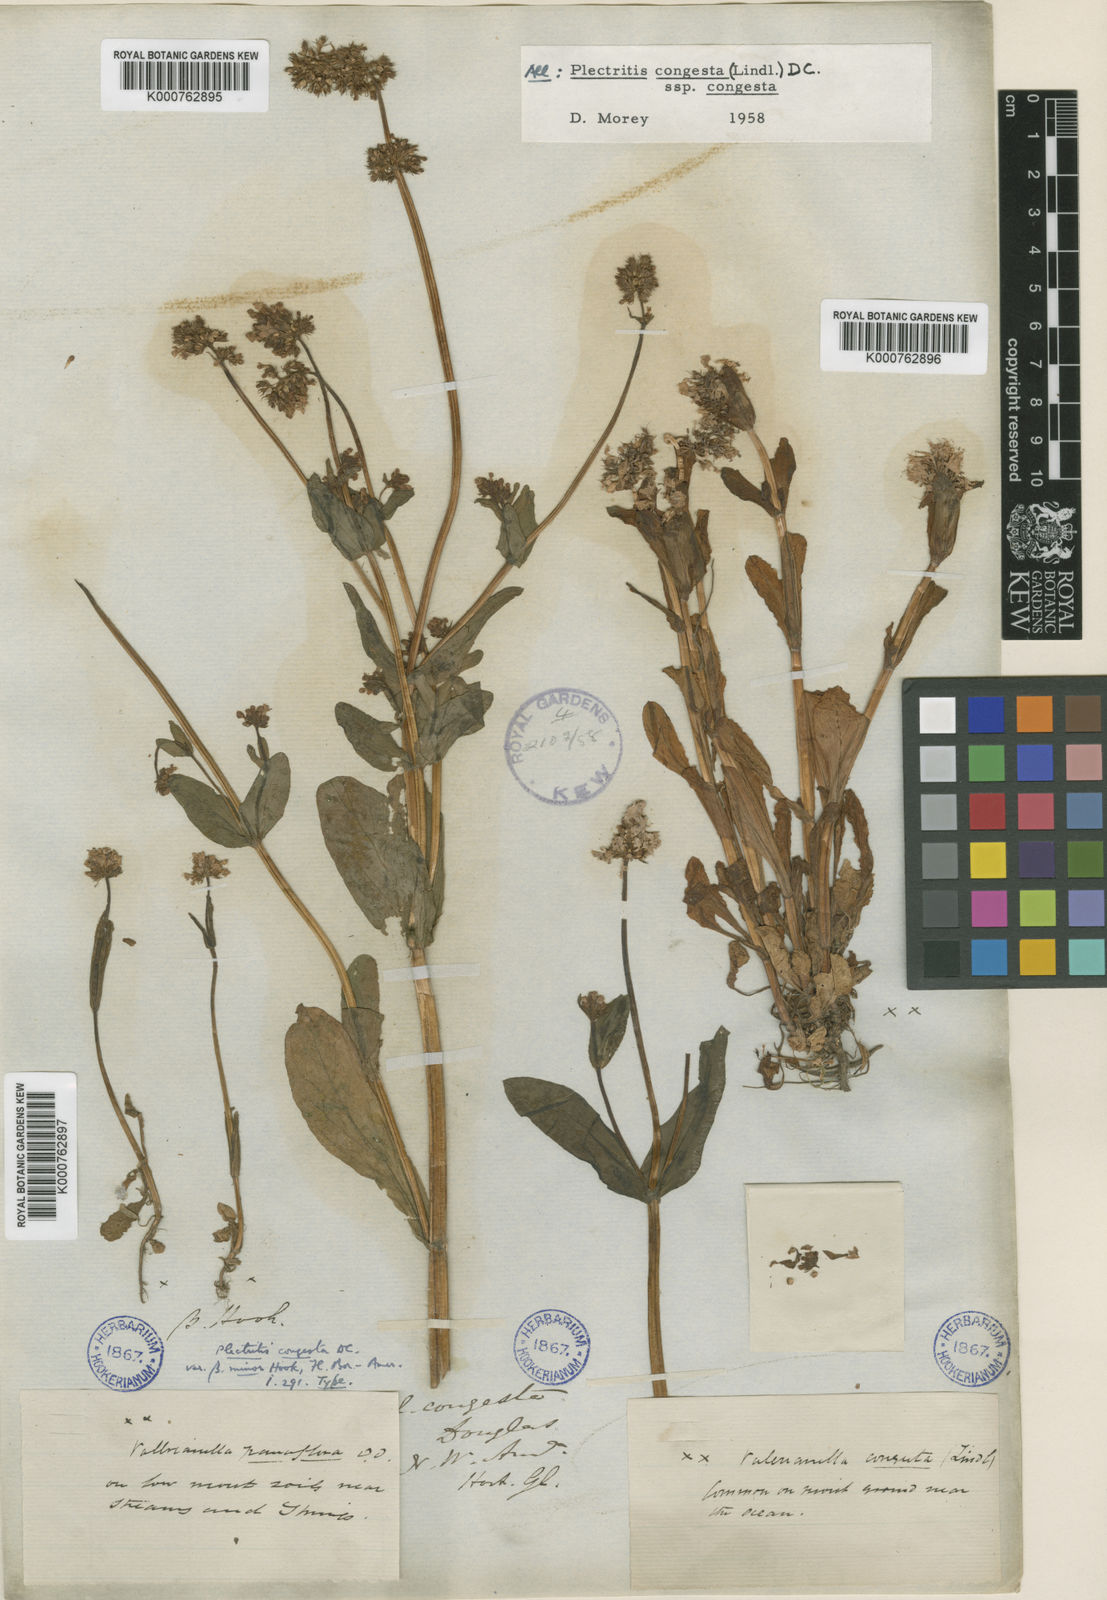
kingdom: Plantae
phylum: Tracheophyta
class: Magnoliopsida
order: Dipsacales
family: Caprifoliaceae
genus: Plectritis
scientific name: Plectritis congesta
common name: Pink plectritis
